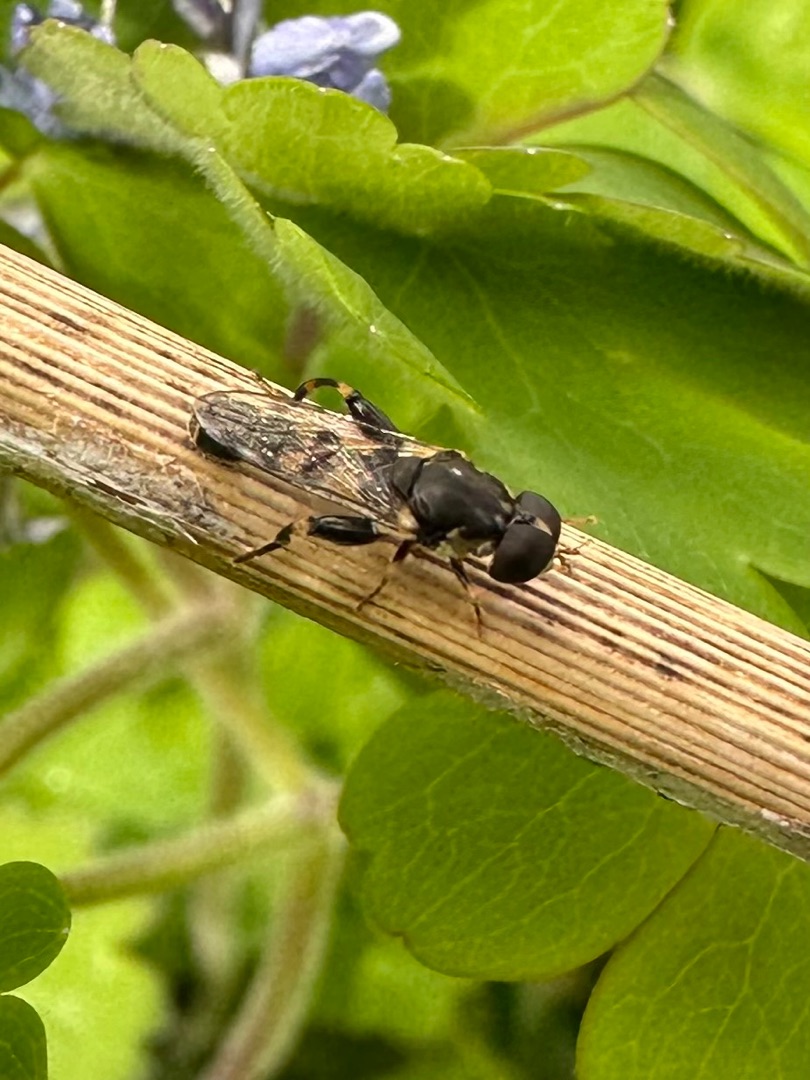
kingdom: Animalia
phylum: Arthropoda
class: Insecta
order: Diptera
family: Syrphidae
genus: Syritta
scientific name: Syritta pipiens
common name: Kompost-svirreflue
